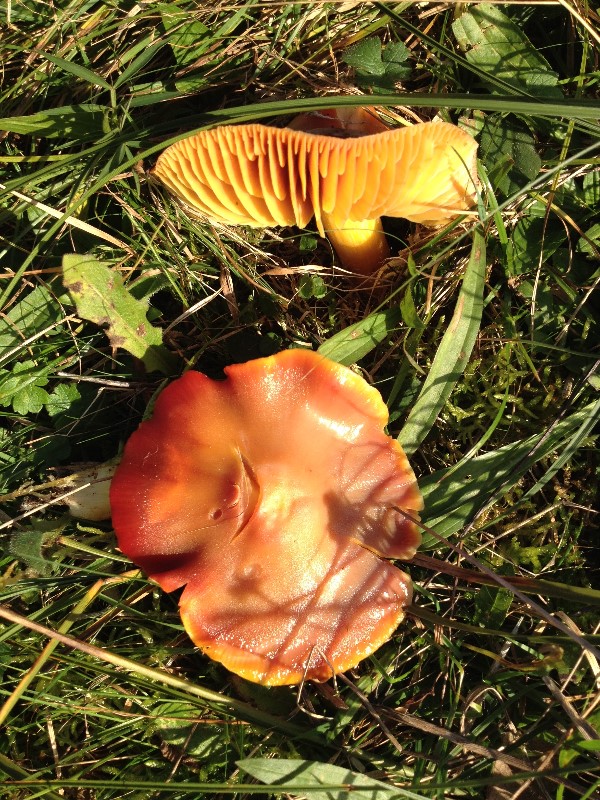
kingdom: Fungi
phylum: Basidiomycota
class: Agaricomycetes
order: Agaricales
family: Hygrophoraceae
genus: Hygrocybe
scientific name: Hygrocybe punicea
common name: skarlagen-vokshat
